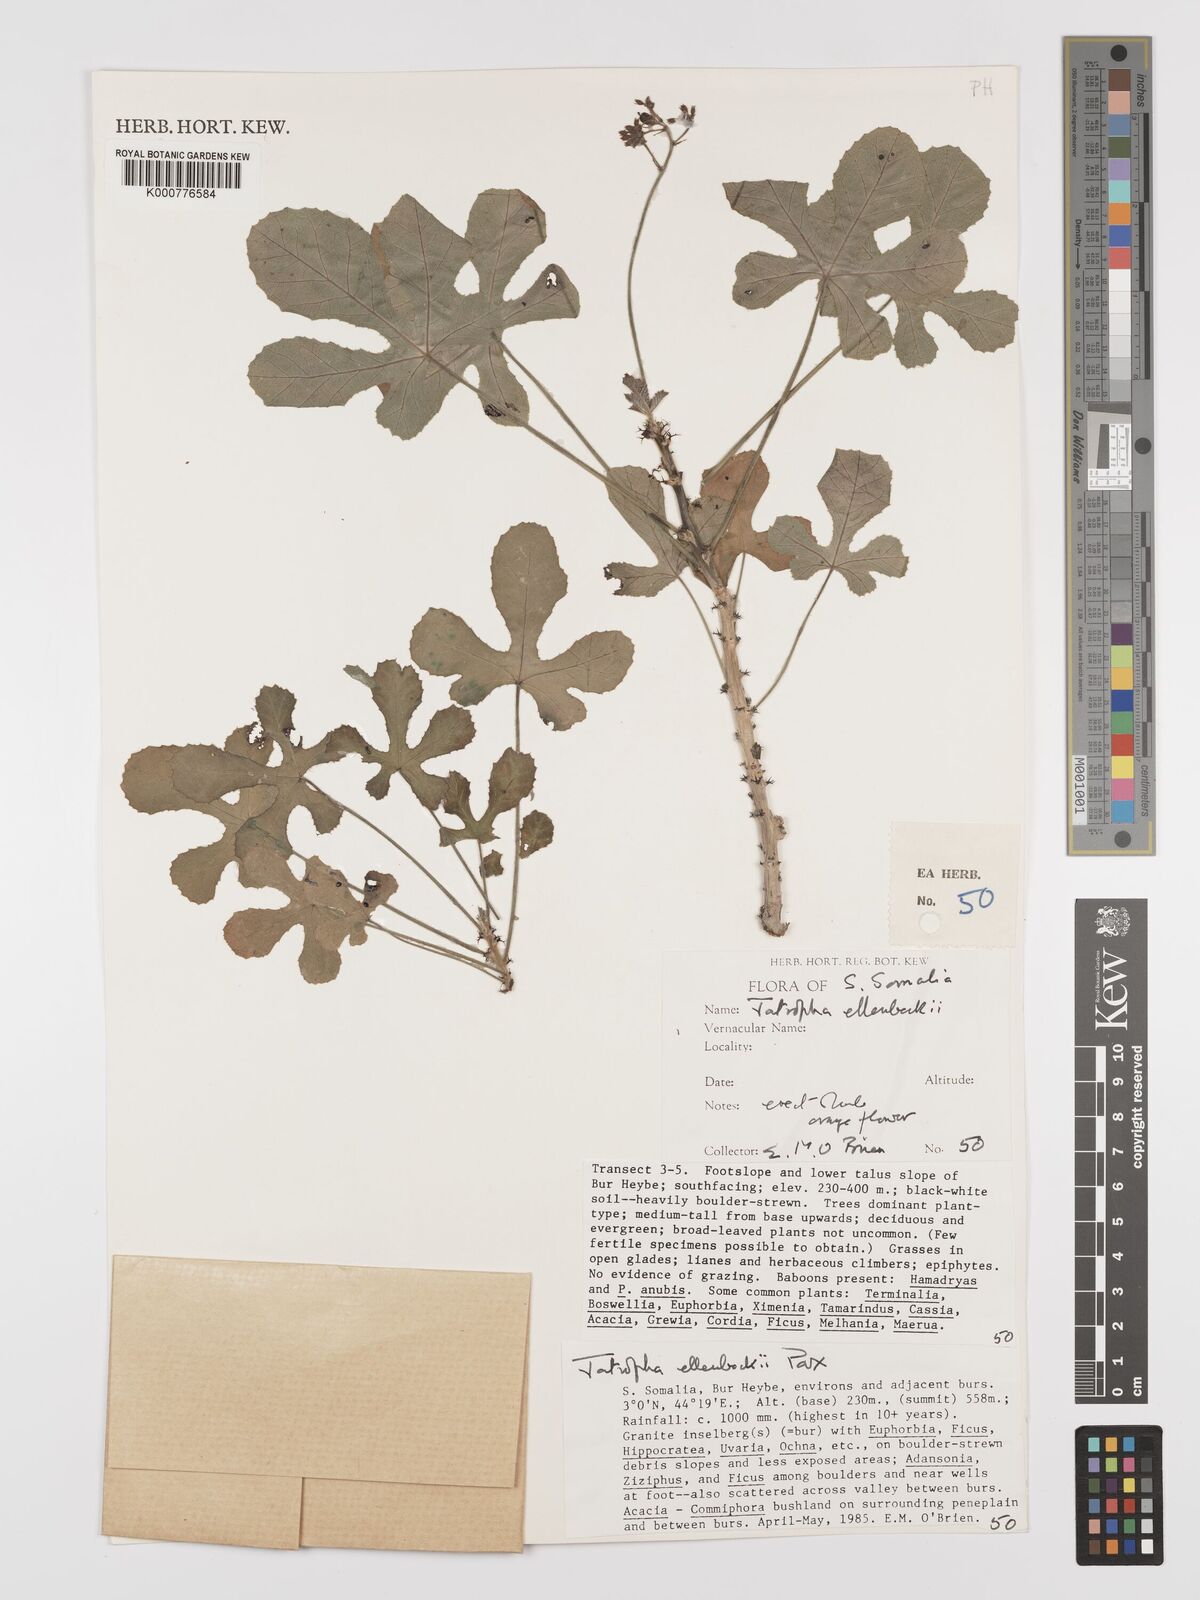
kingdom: Plantae
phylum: Tracheophyta
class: Magnoliopsida
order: Malpighiales
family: Euphorbiaceae
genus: Jatropha
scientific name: Jatropha ellenbeckii
